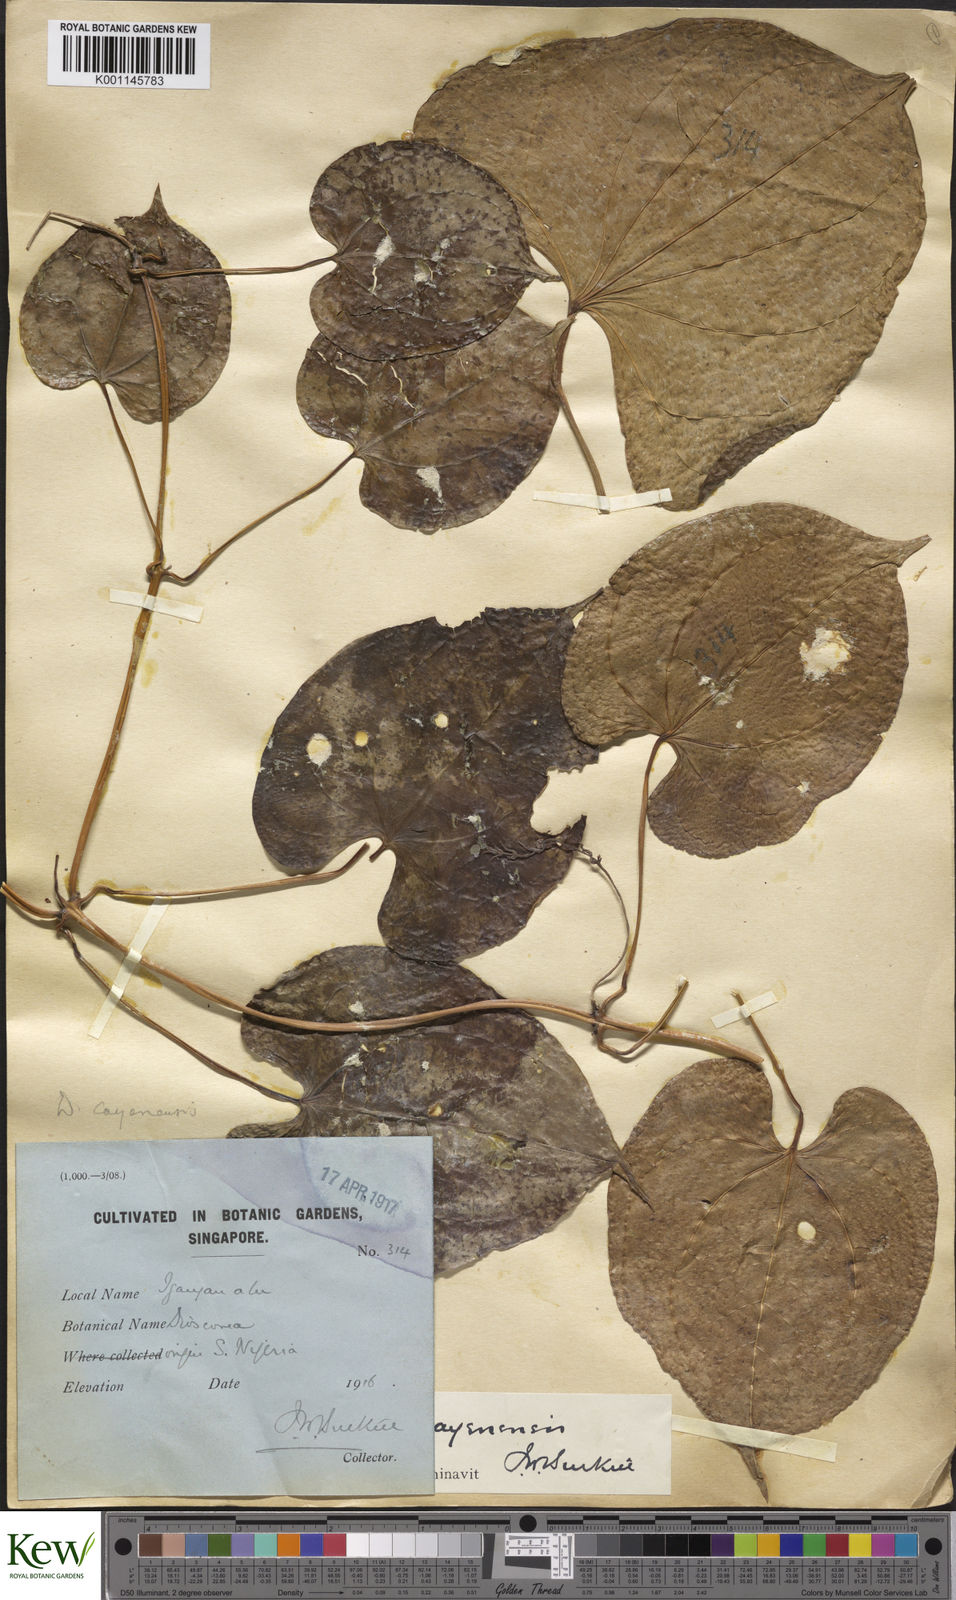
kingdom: Plantae
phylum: Tracheophyta
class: Liliopsida
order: Dioscoreales
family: Dioscoreaceae
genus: Dioscorea
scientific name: Dioscorea cayenensis
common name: Attoto yam
